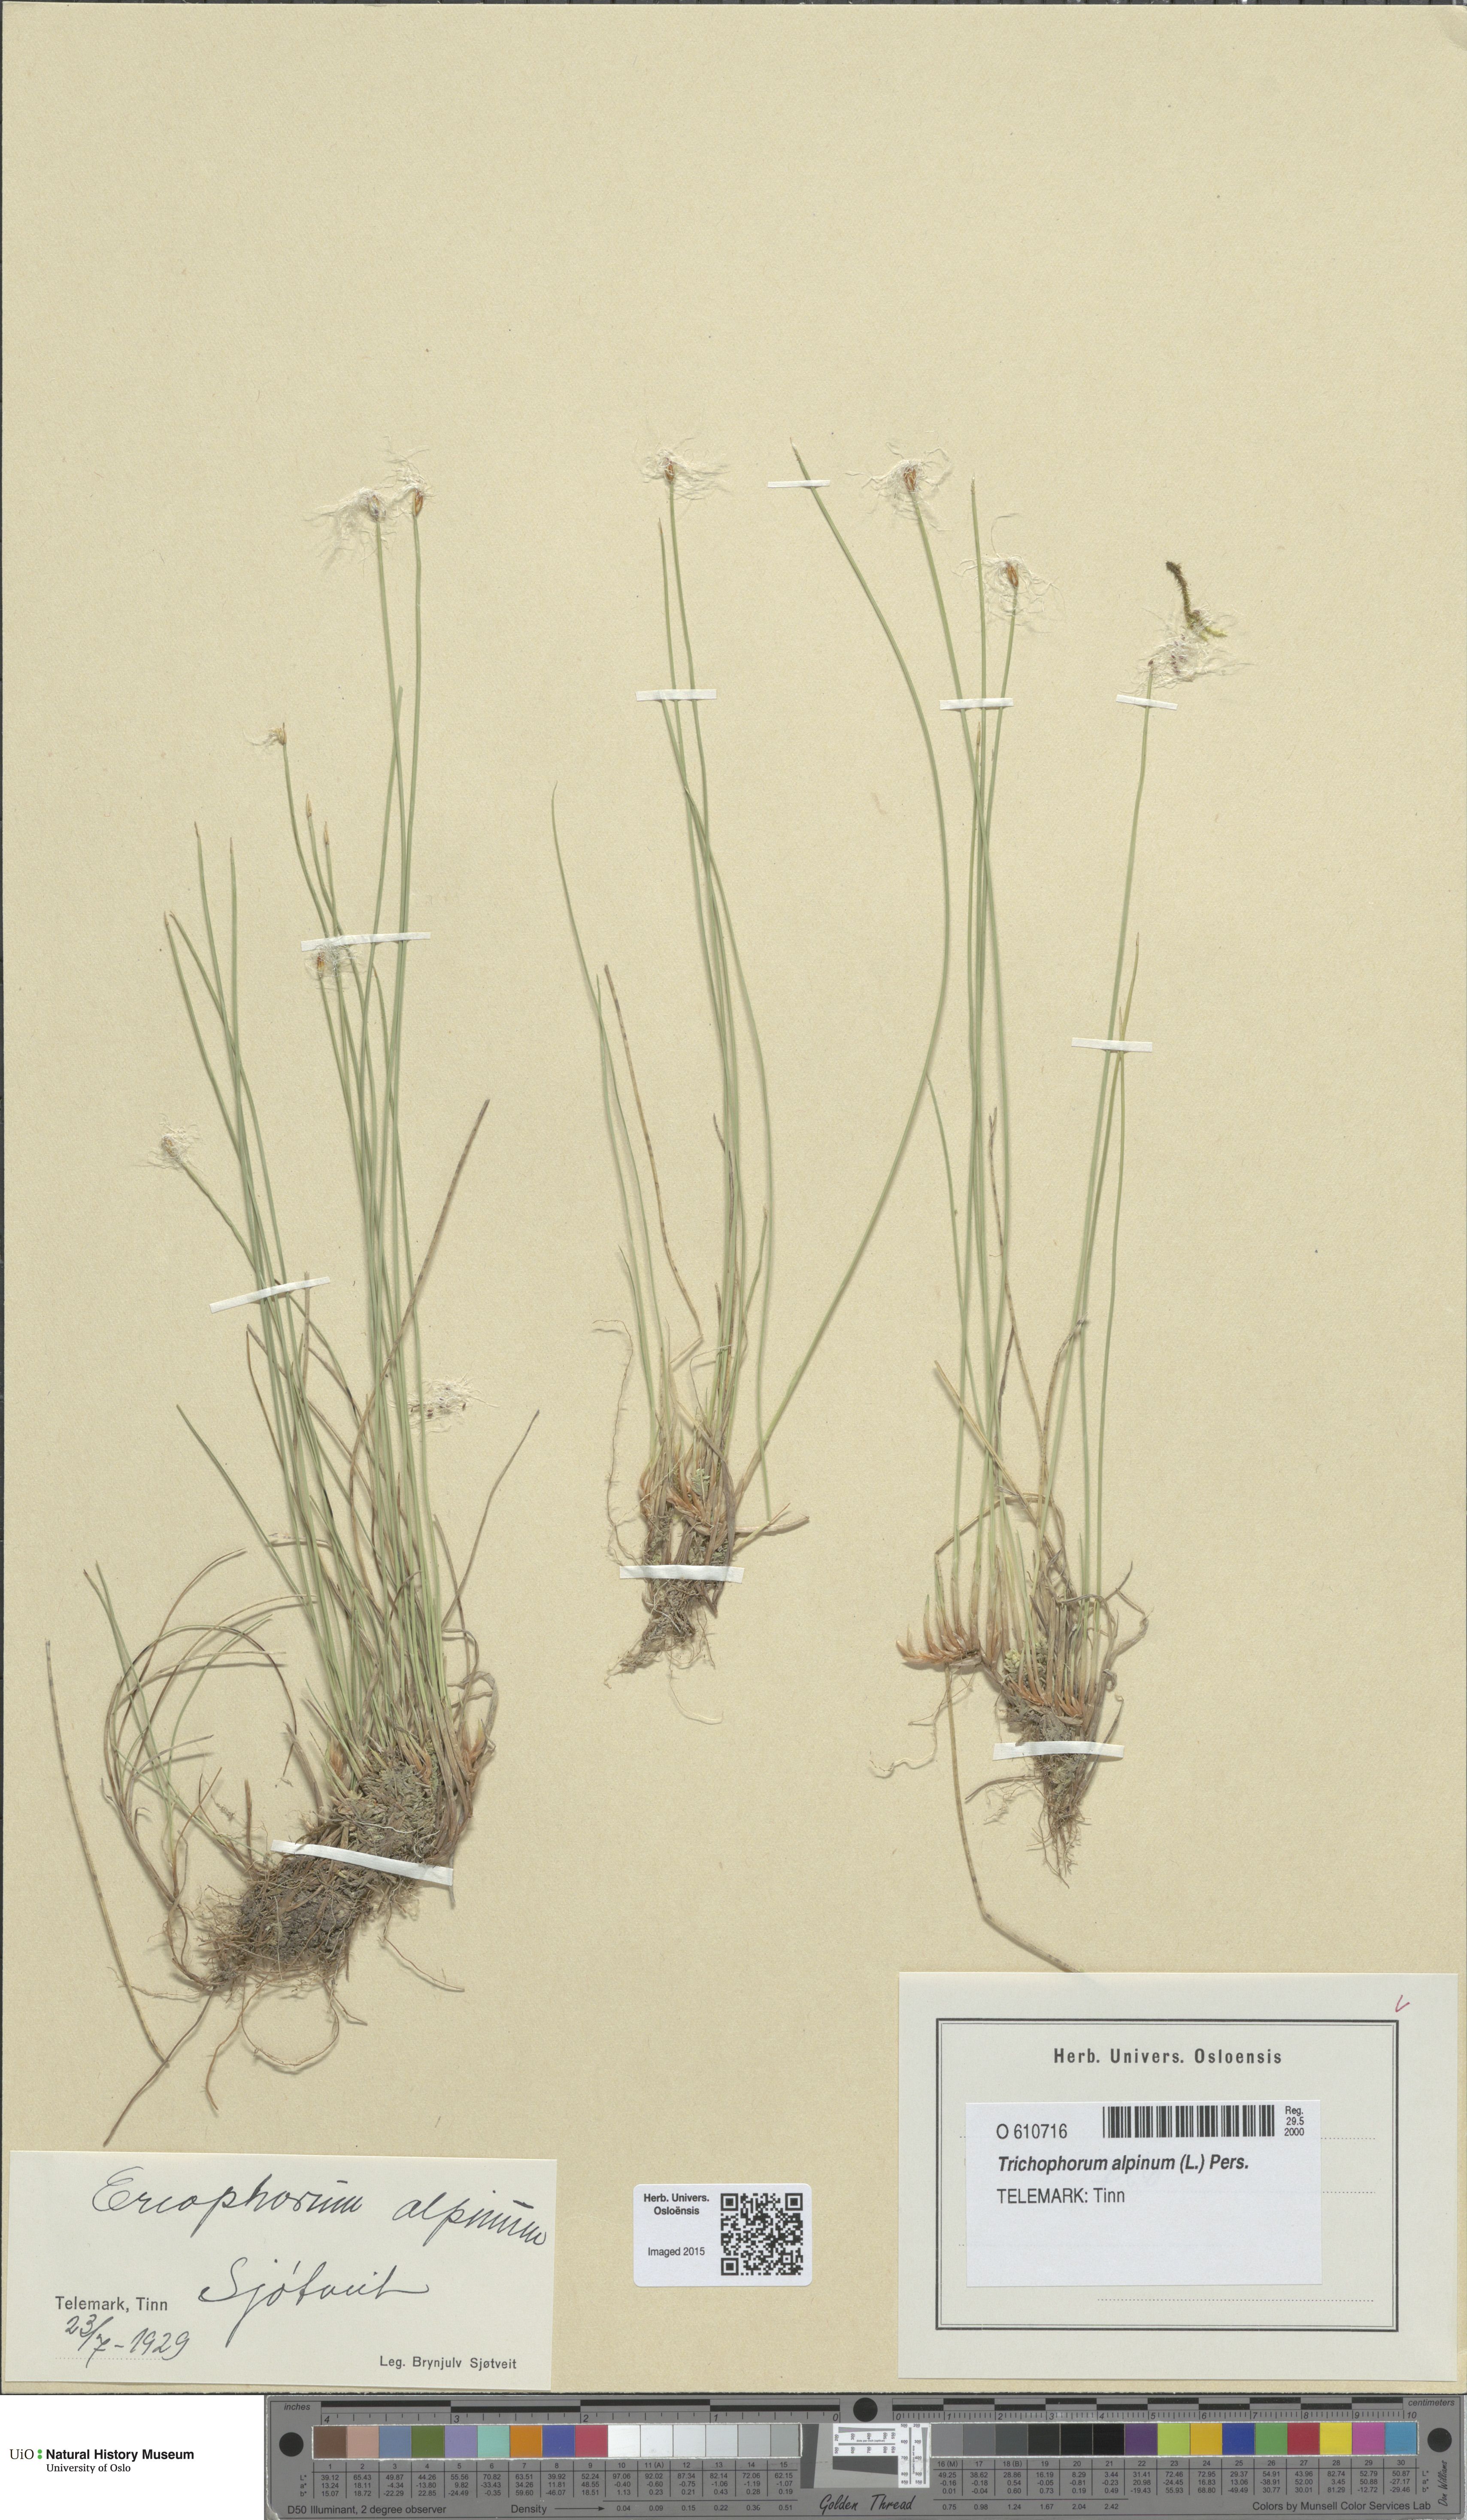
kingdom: Plantae
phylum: Tracheophyta
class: Liliopsida
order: Poales
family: Cyperaceae
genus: Trichophorum
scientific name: Trichophorum alpinum
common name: Alpine bulrush
